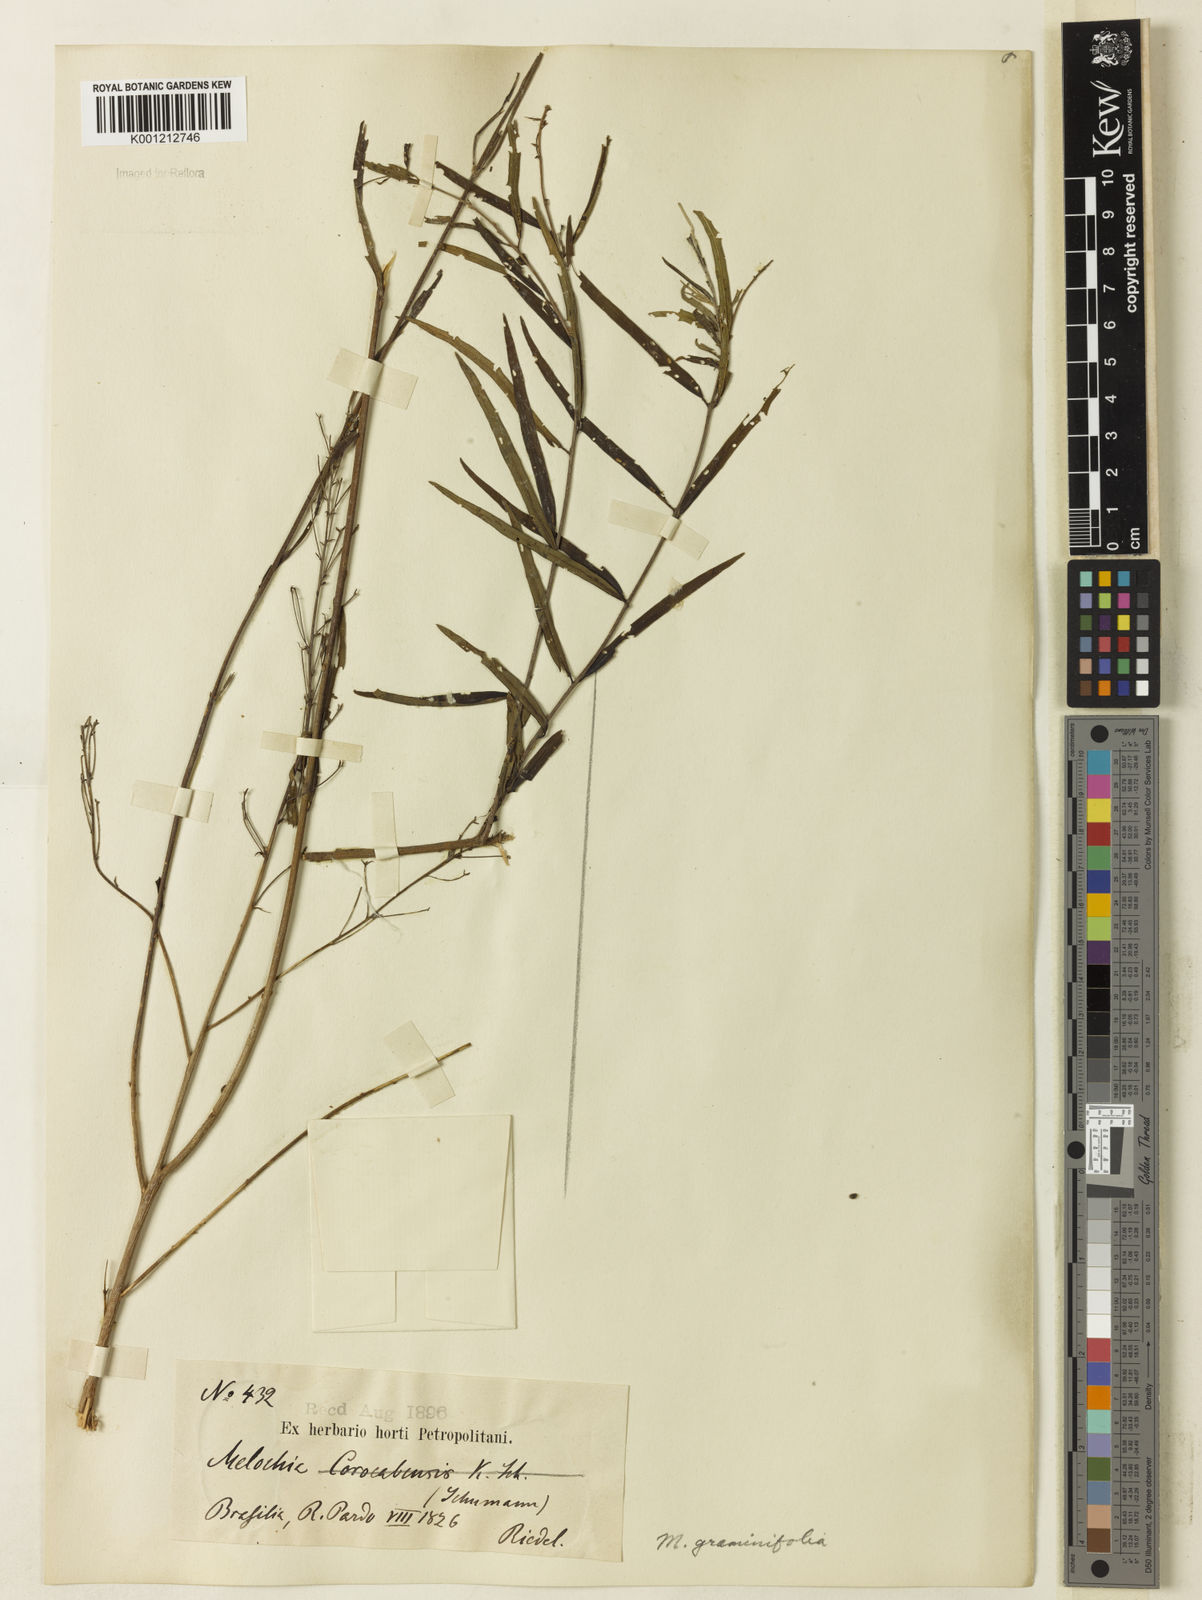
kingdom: Plantae
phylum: Tracheophyta
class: Magnoliopsida
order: Malvales
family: Malvaceae
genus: Melochia
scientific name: Melochia graminifolia
